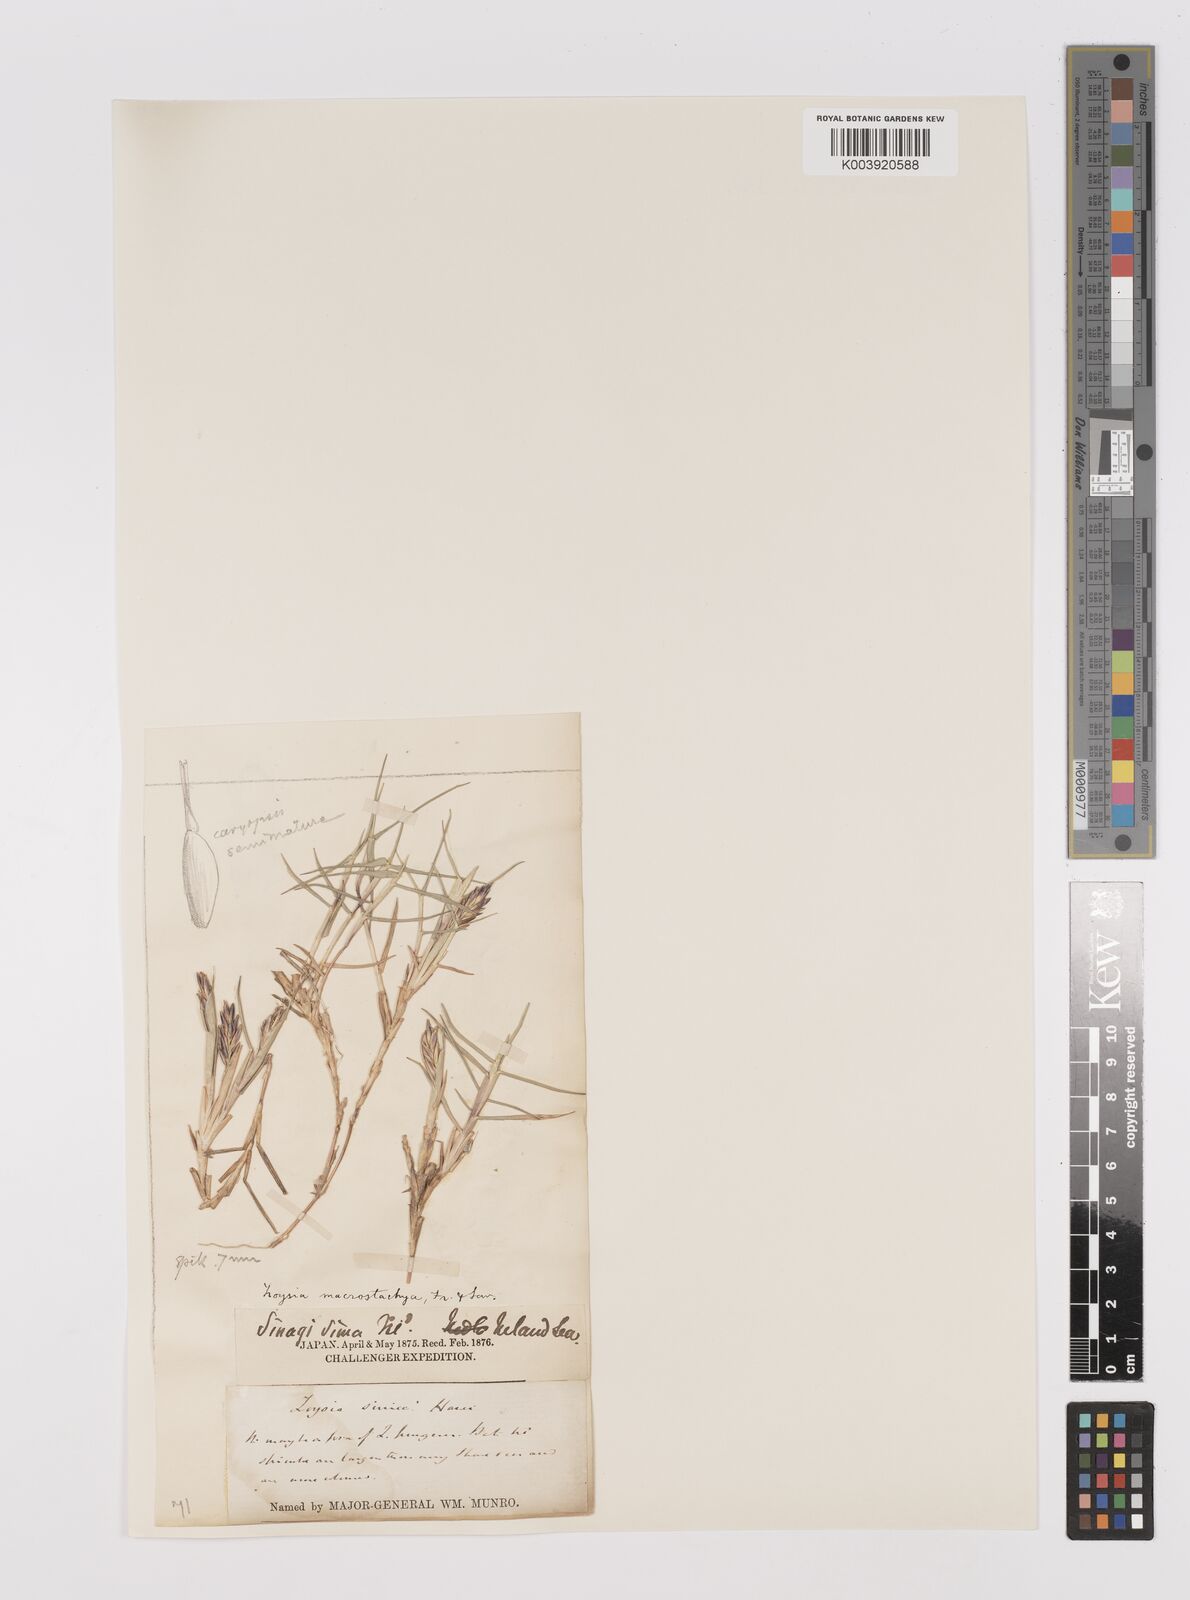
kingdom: Plantae
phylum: Tracheophyta
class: Liliopsida
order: Poales
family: Poaceae
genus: Zoysia
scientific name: Zoysia macrostachya
